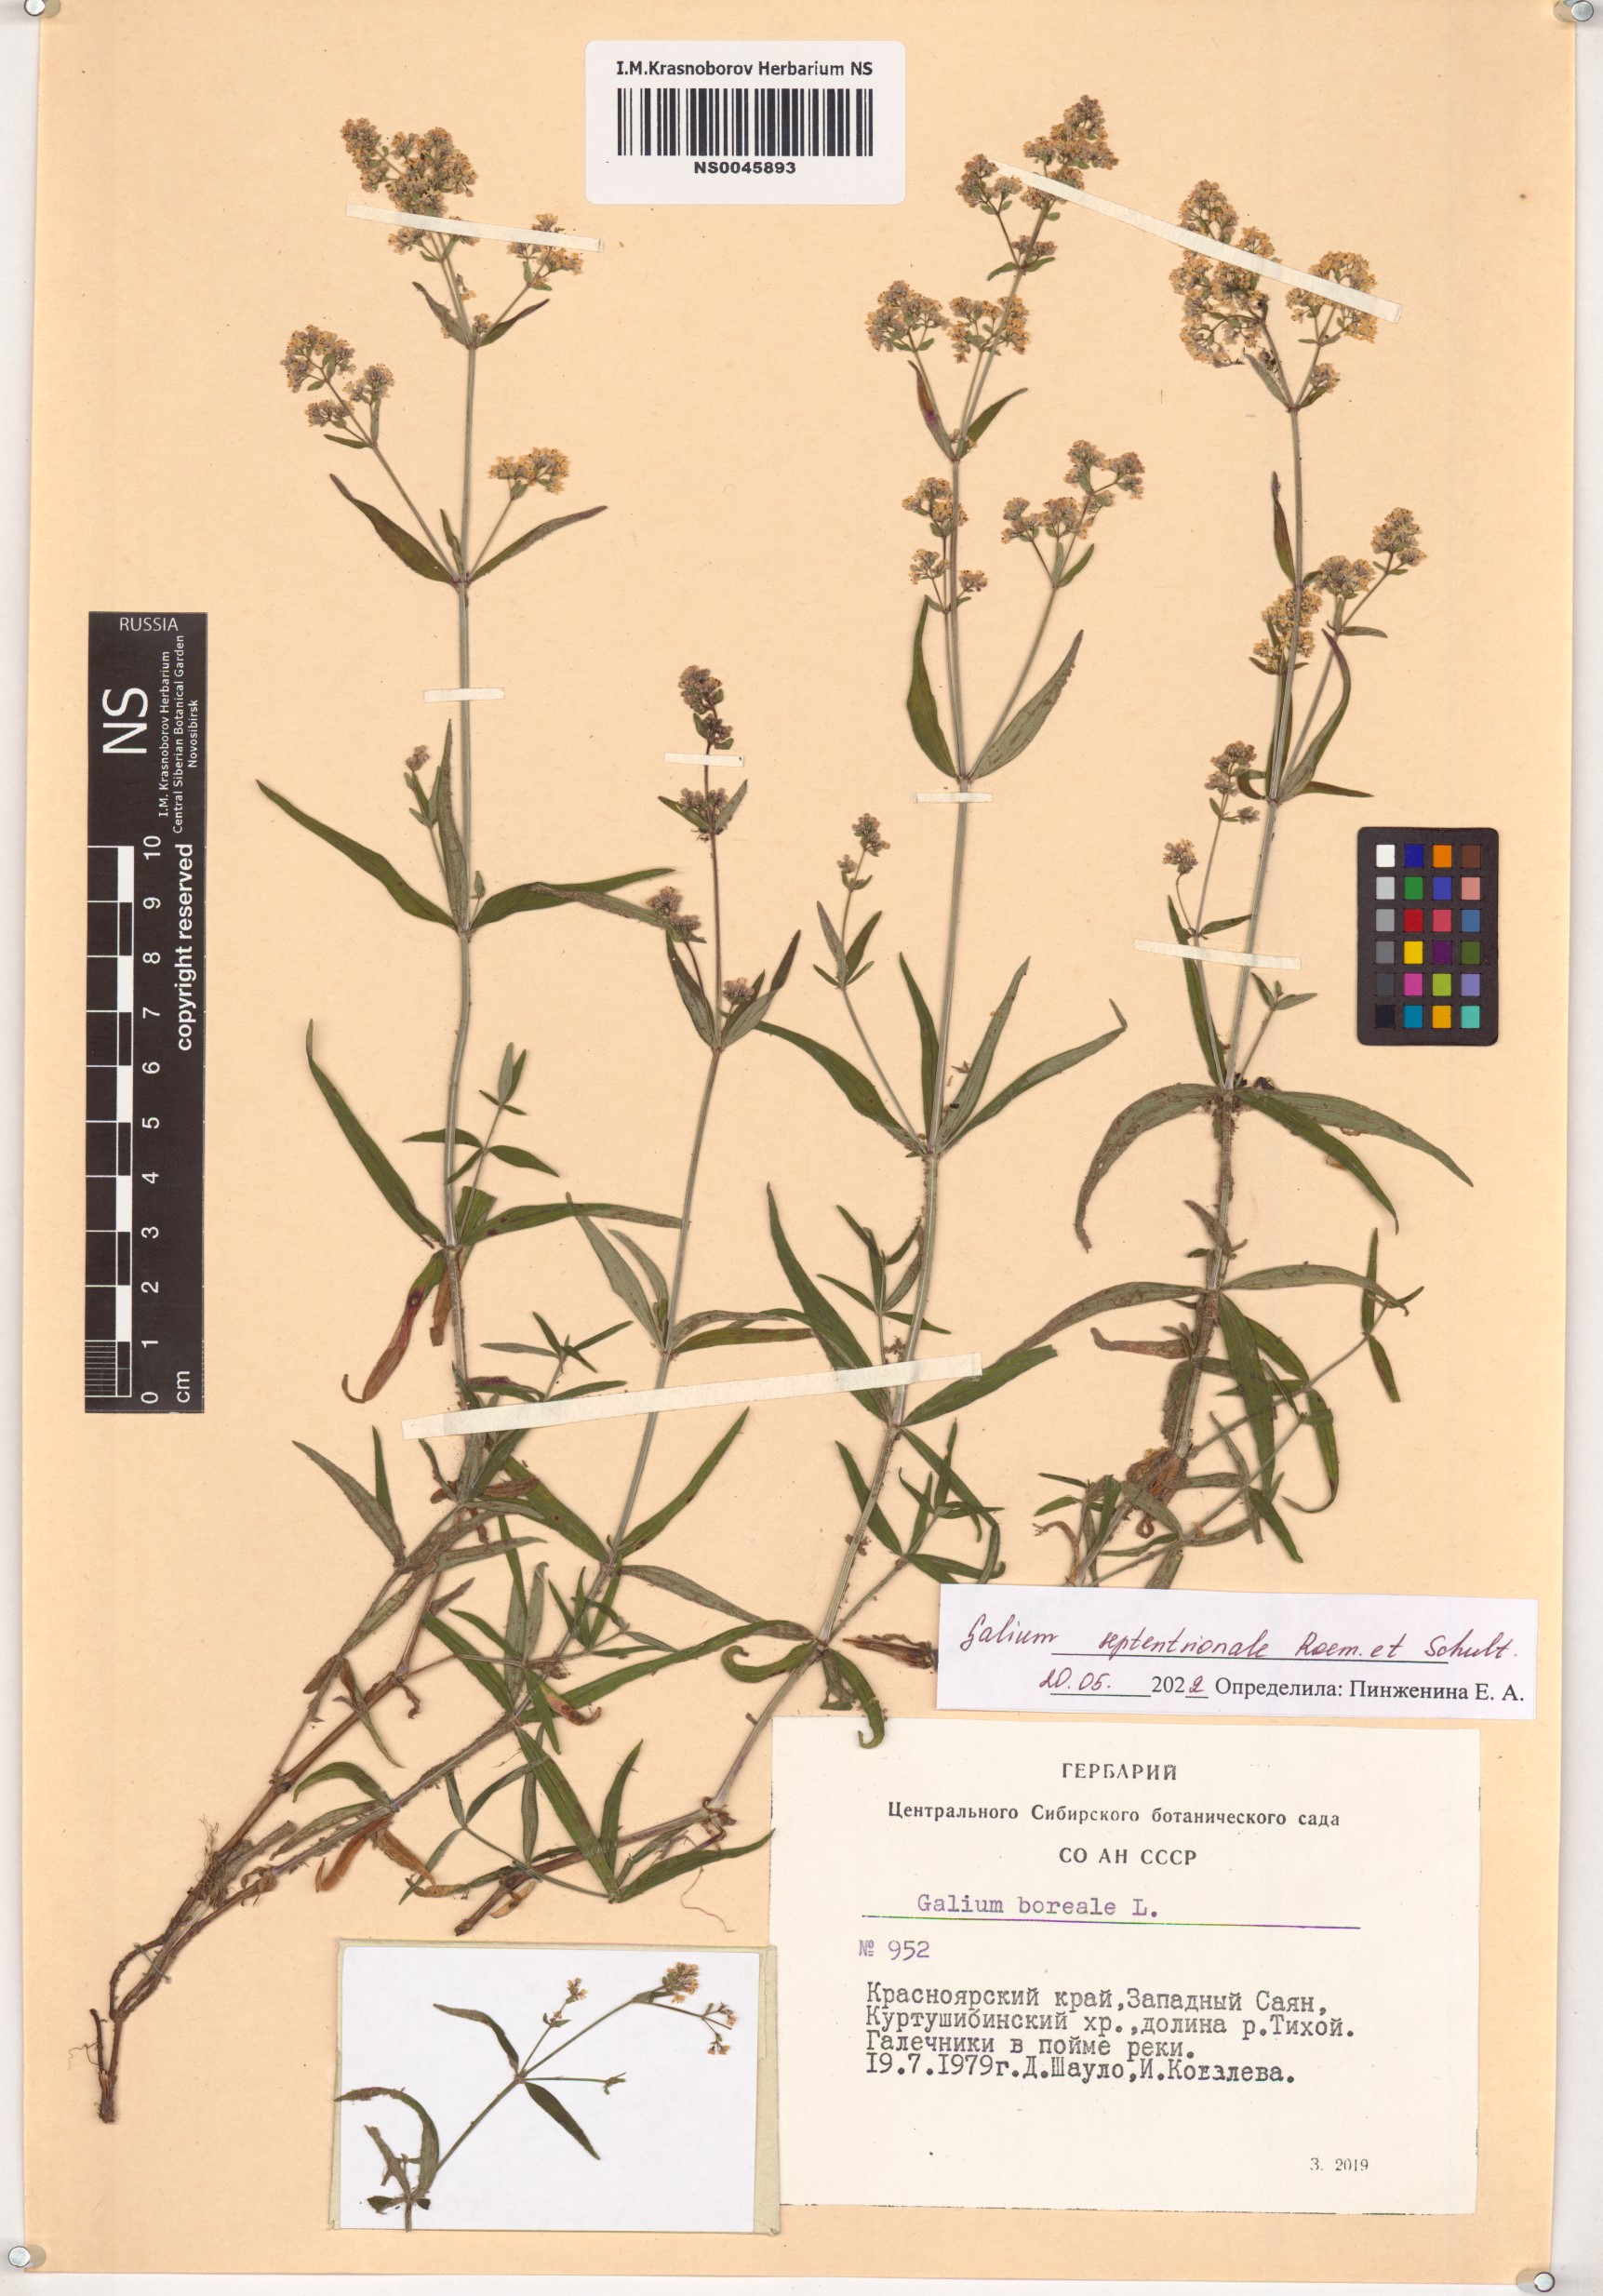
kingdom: Plantae
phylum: Tracheophyta
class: Magnoliopsida
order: Gentianales
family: Rubiaceae
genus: Galium
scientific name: Galium boreale
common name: Northern bedstraw
